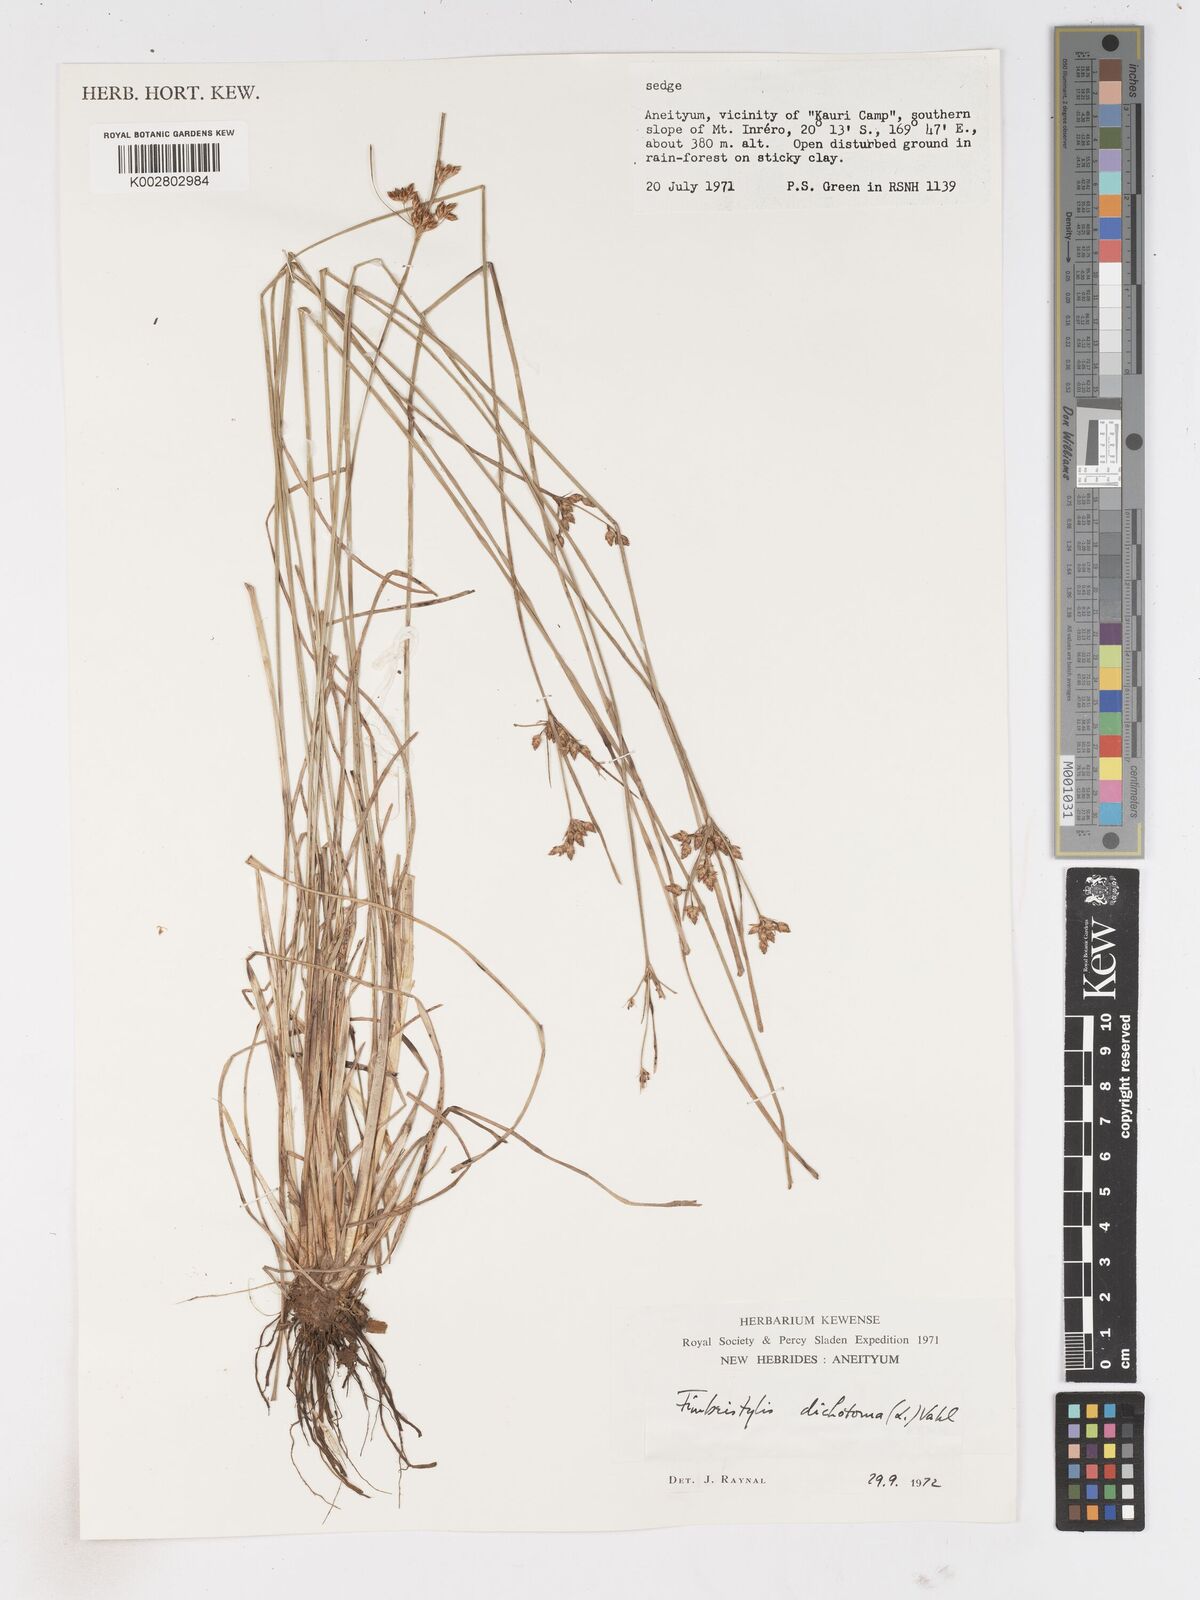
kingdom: Plantae
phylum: Tracheophyta
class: Liliopsida
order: Poales
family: Cyperaceae
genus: Fimbristylis
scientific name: Fimbristylis dichotoma
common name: Forked fimbry
